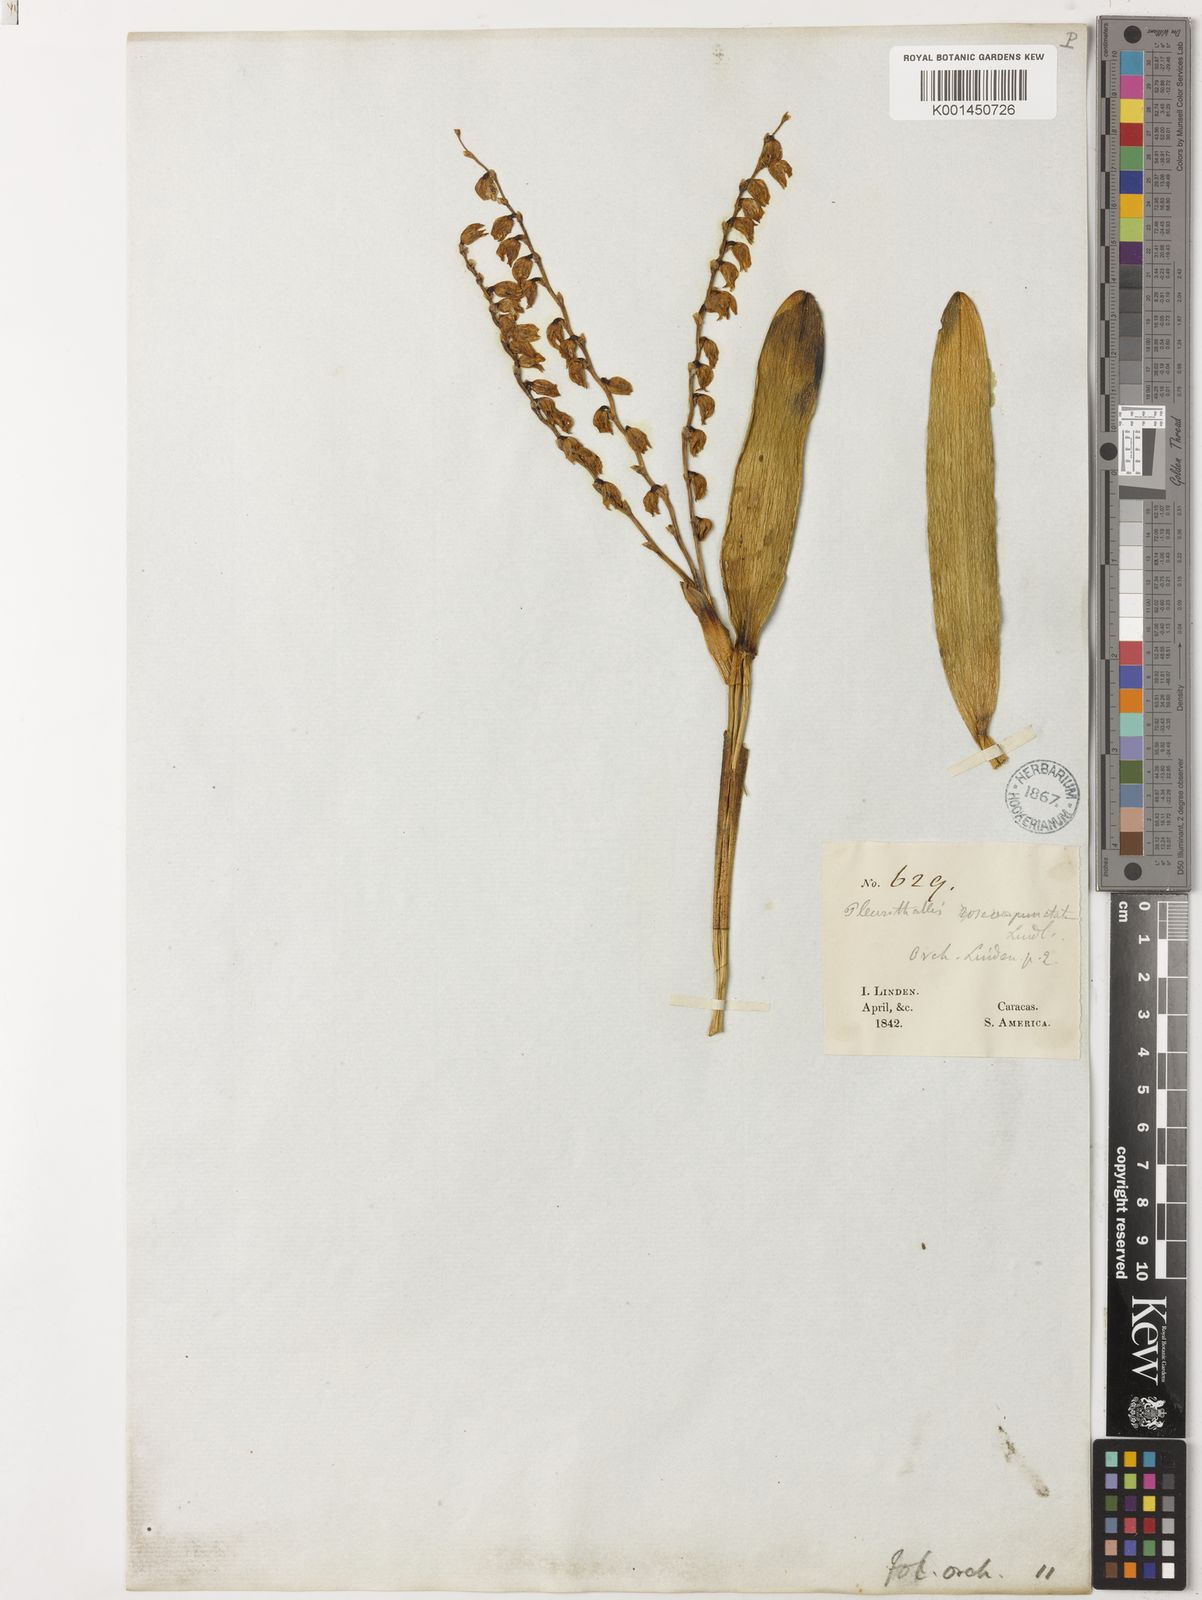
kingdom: Plantae
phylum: Tracheophyta
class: Liliopsida
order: Asparagales
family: Orchidaceae
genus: Stelis
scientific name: Stelis roseopunctata
